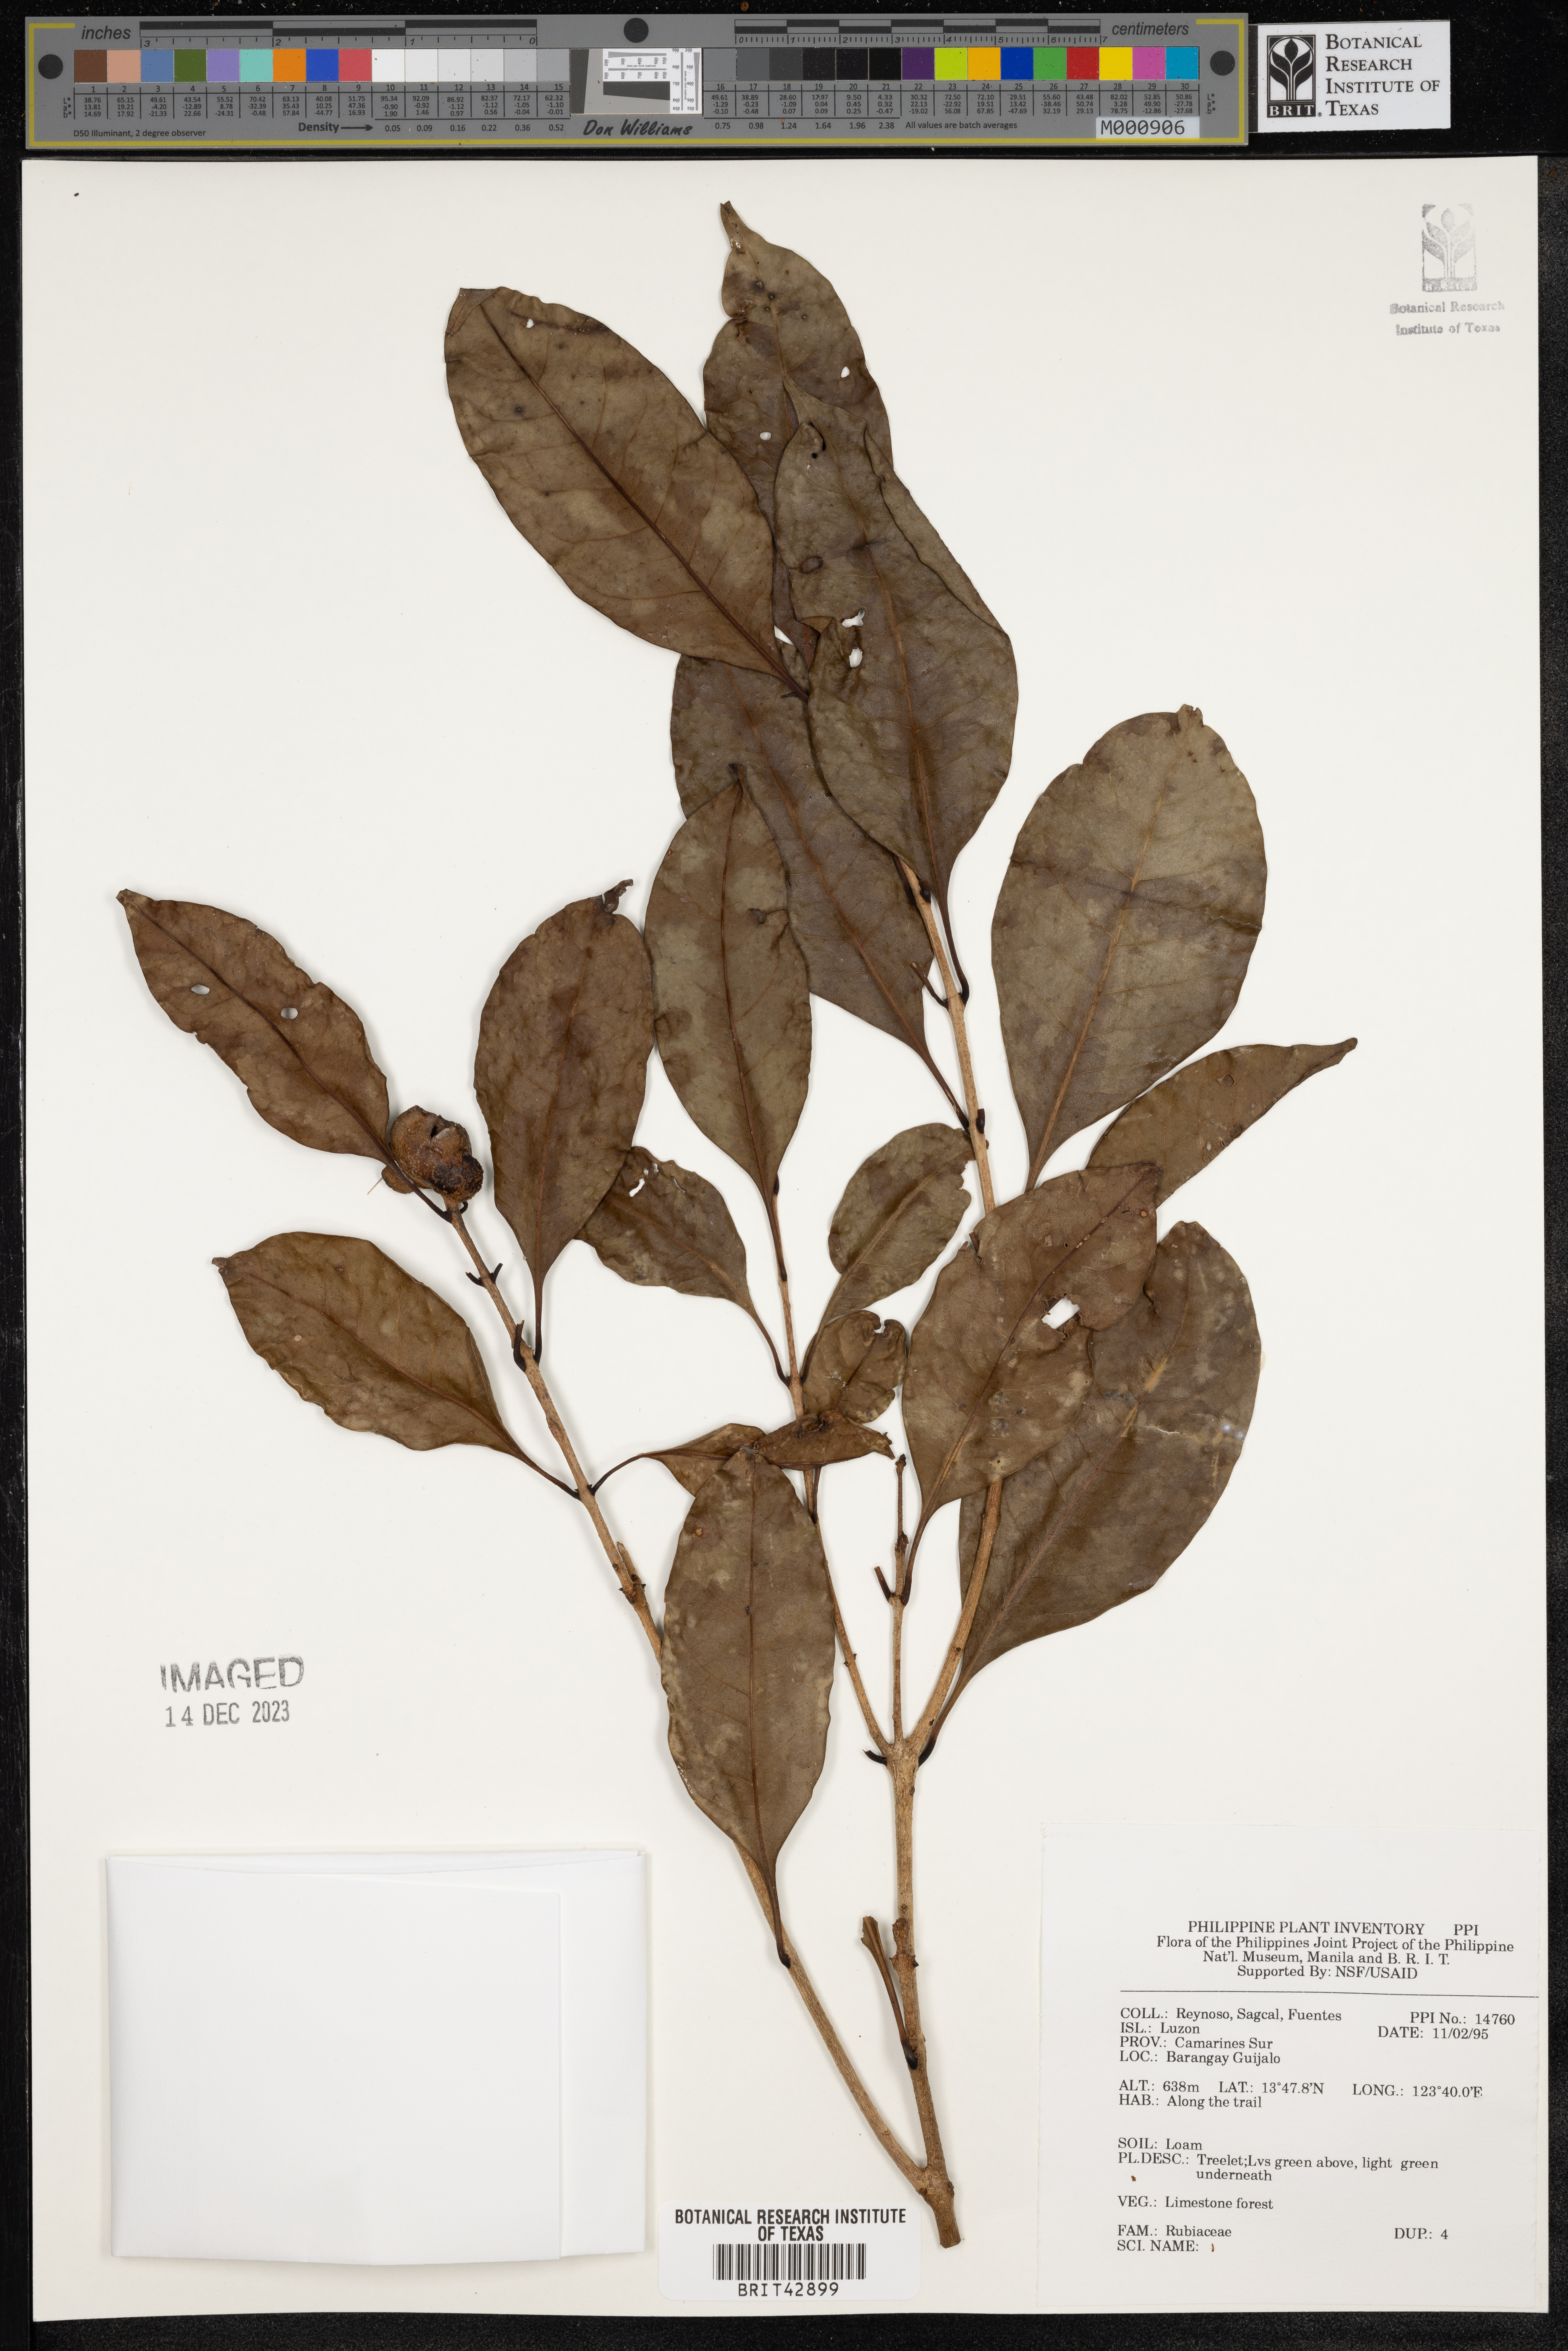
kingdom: Plantae
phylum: Tracheophyta
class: Magnoliopsida
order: Gentianales
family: Rubiaceae
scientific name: Rubiaceae
